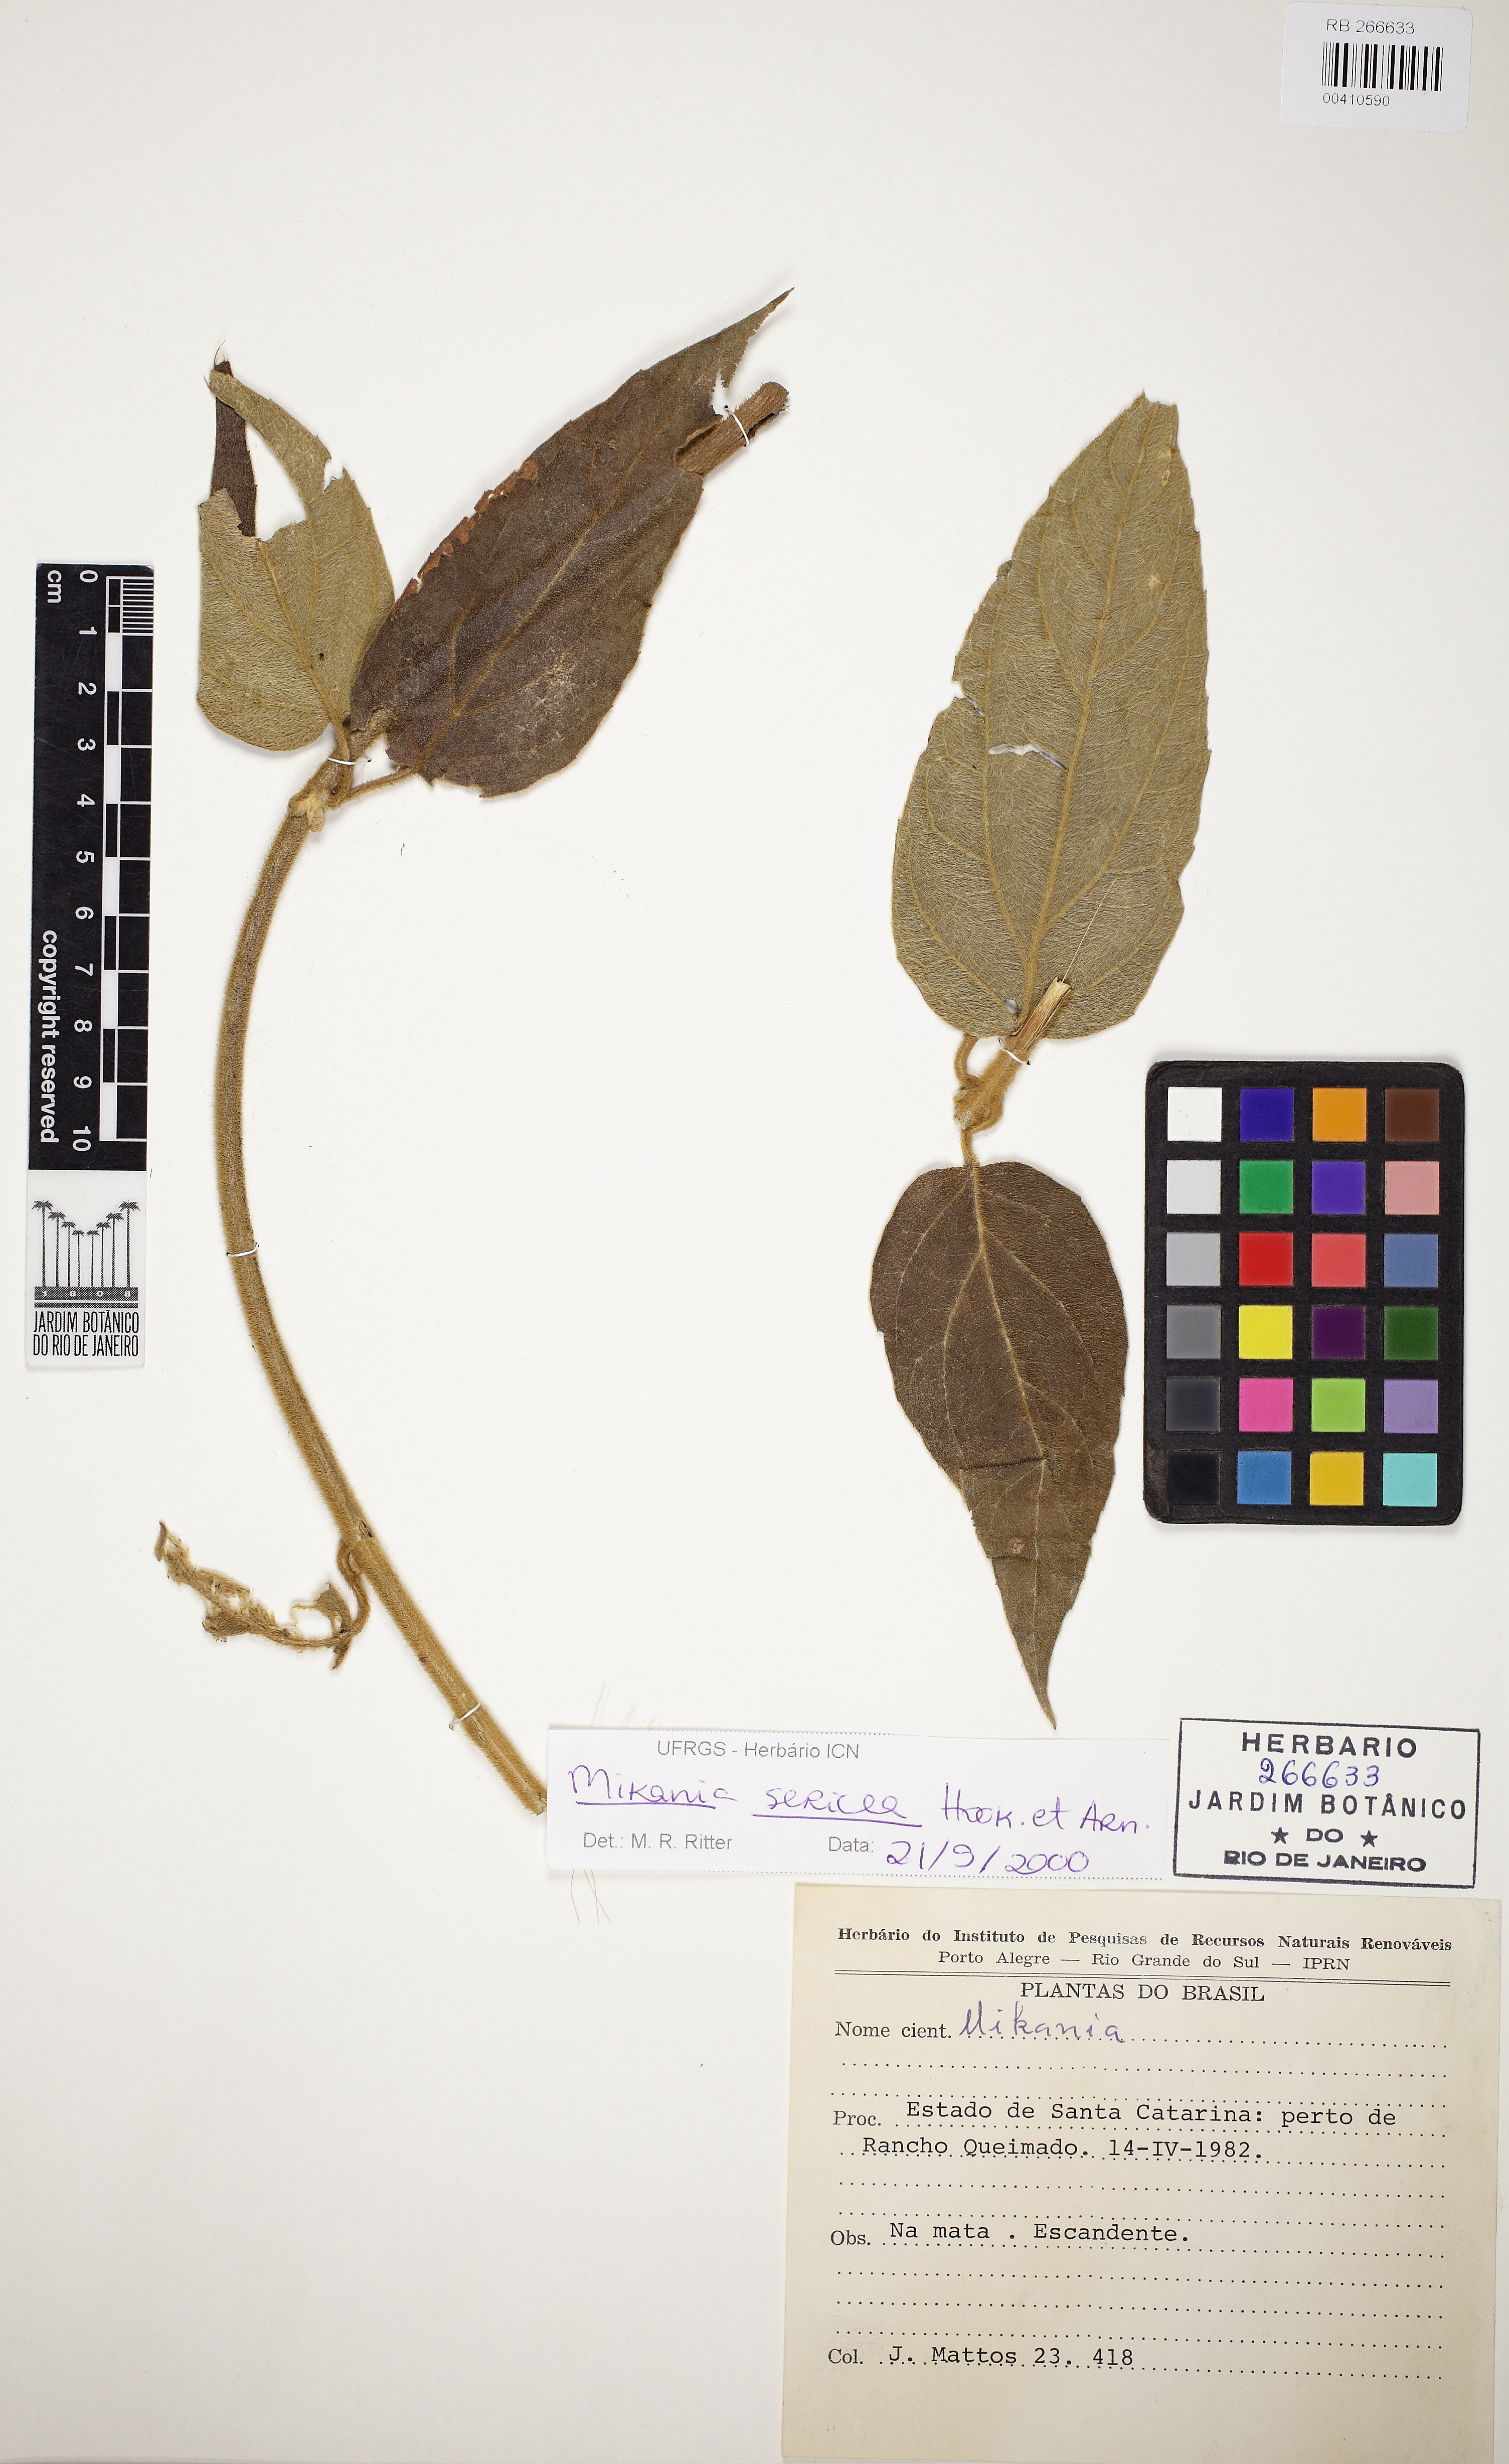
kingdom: Plantae
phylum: Tracheophyta
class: Magnoliopsida
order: Asterales
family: Asteraceae
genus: Mikania
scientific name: Mikania sericea
